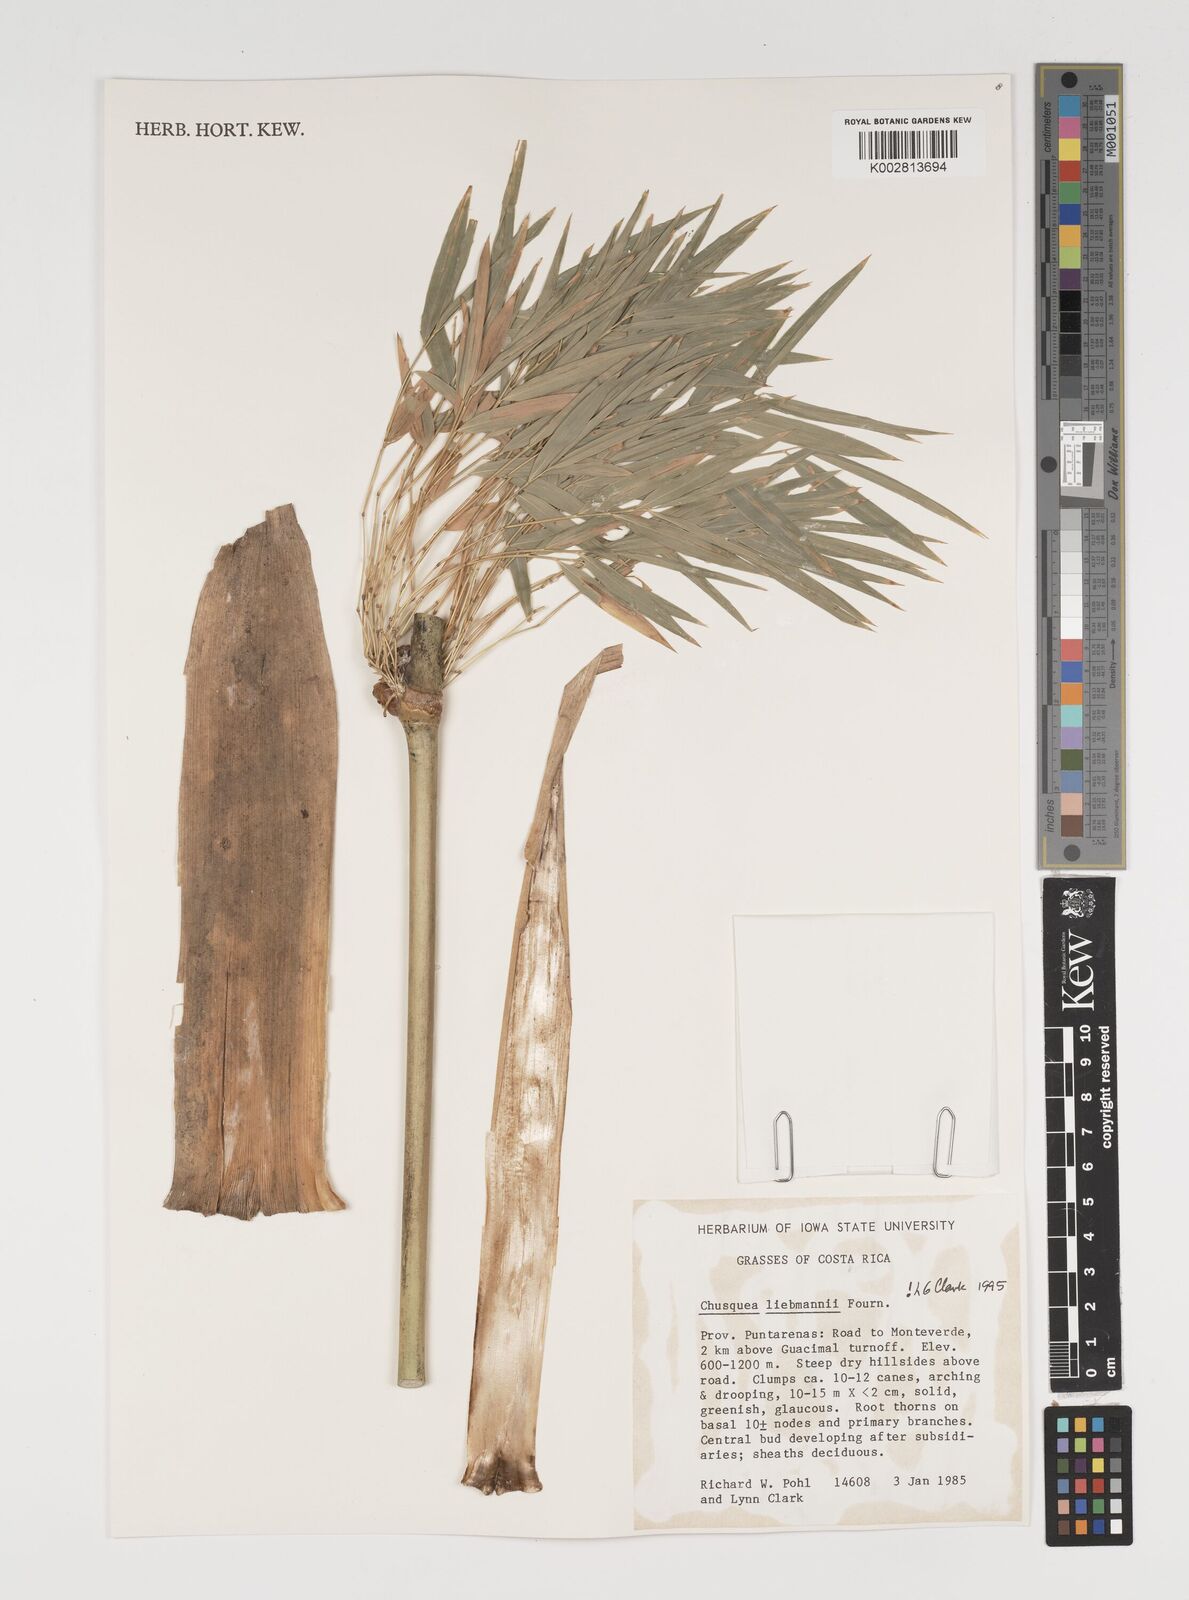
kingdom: Plantae
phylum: Tracheophyta
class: Liliopsida
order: Poales
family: Poaceae
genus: Chusquea
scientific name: Chusquea liebmannii
